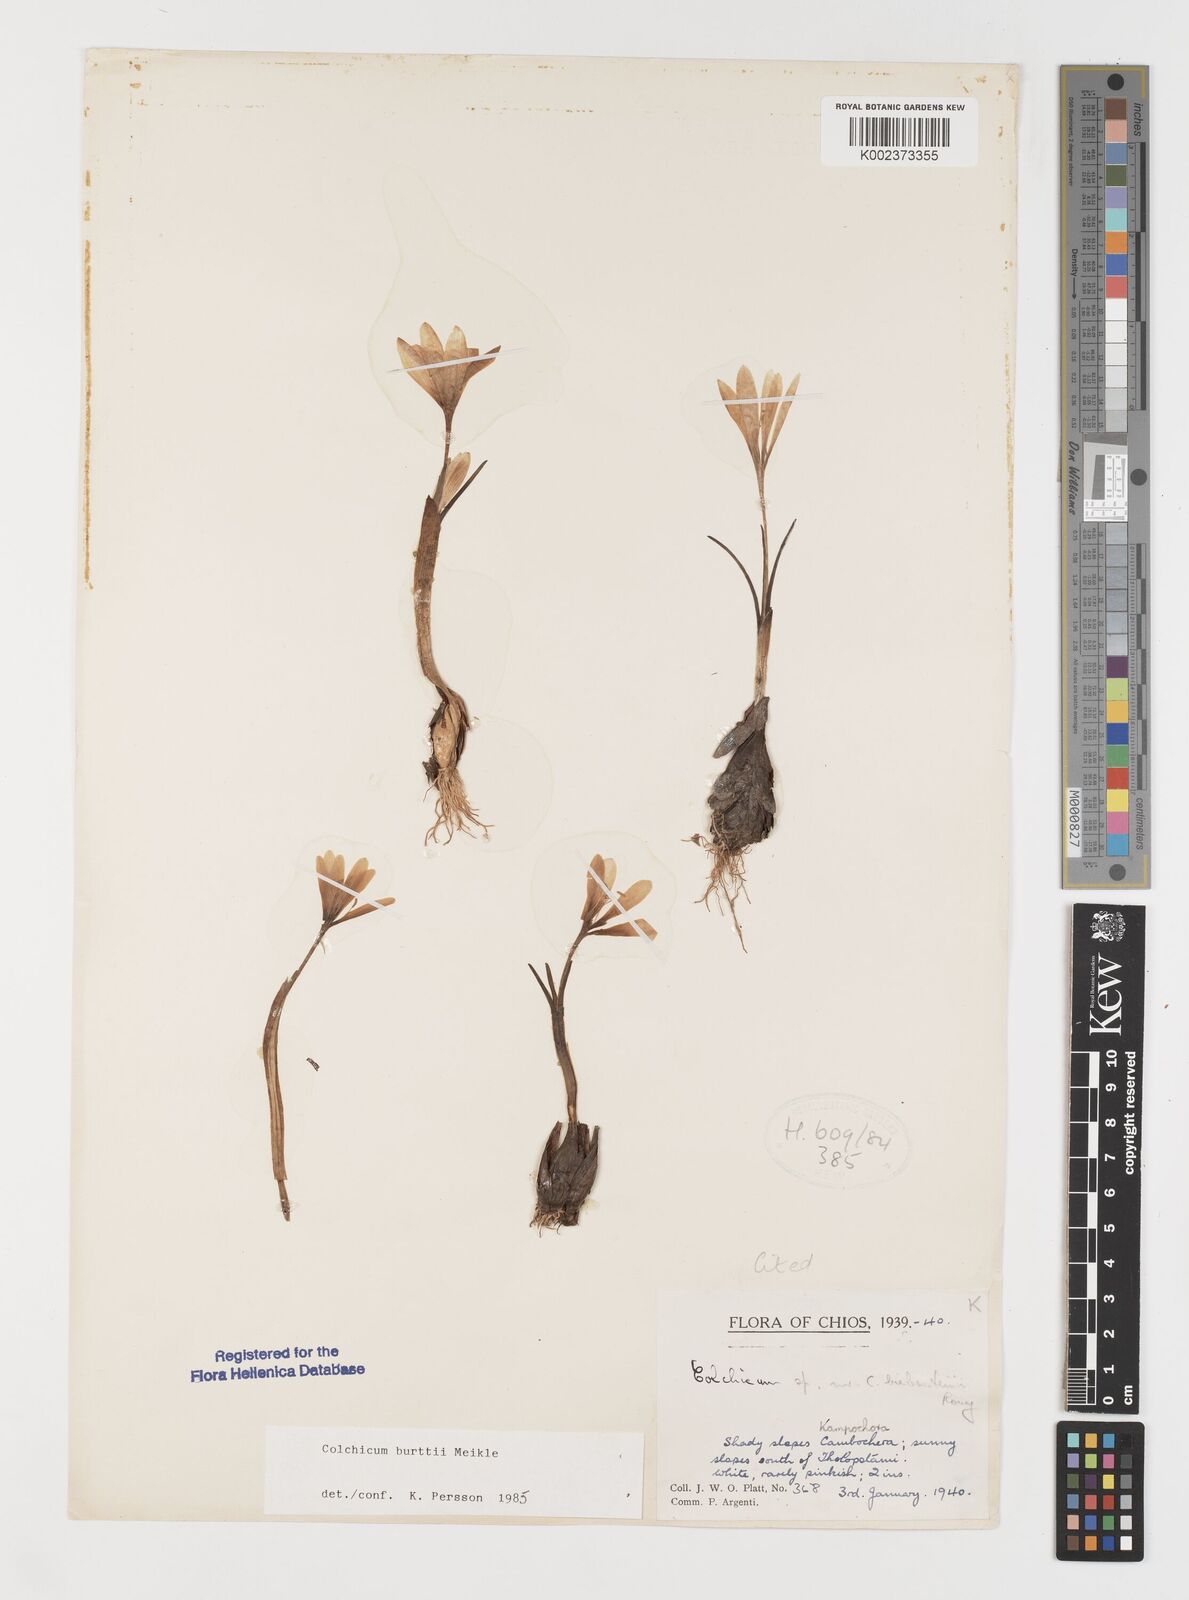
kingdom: Plantae
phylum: Tracheophyta
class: Liliopsida
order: Liliales
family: Colchicaceae
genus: Colchicum
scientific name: Colchicum burttii
